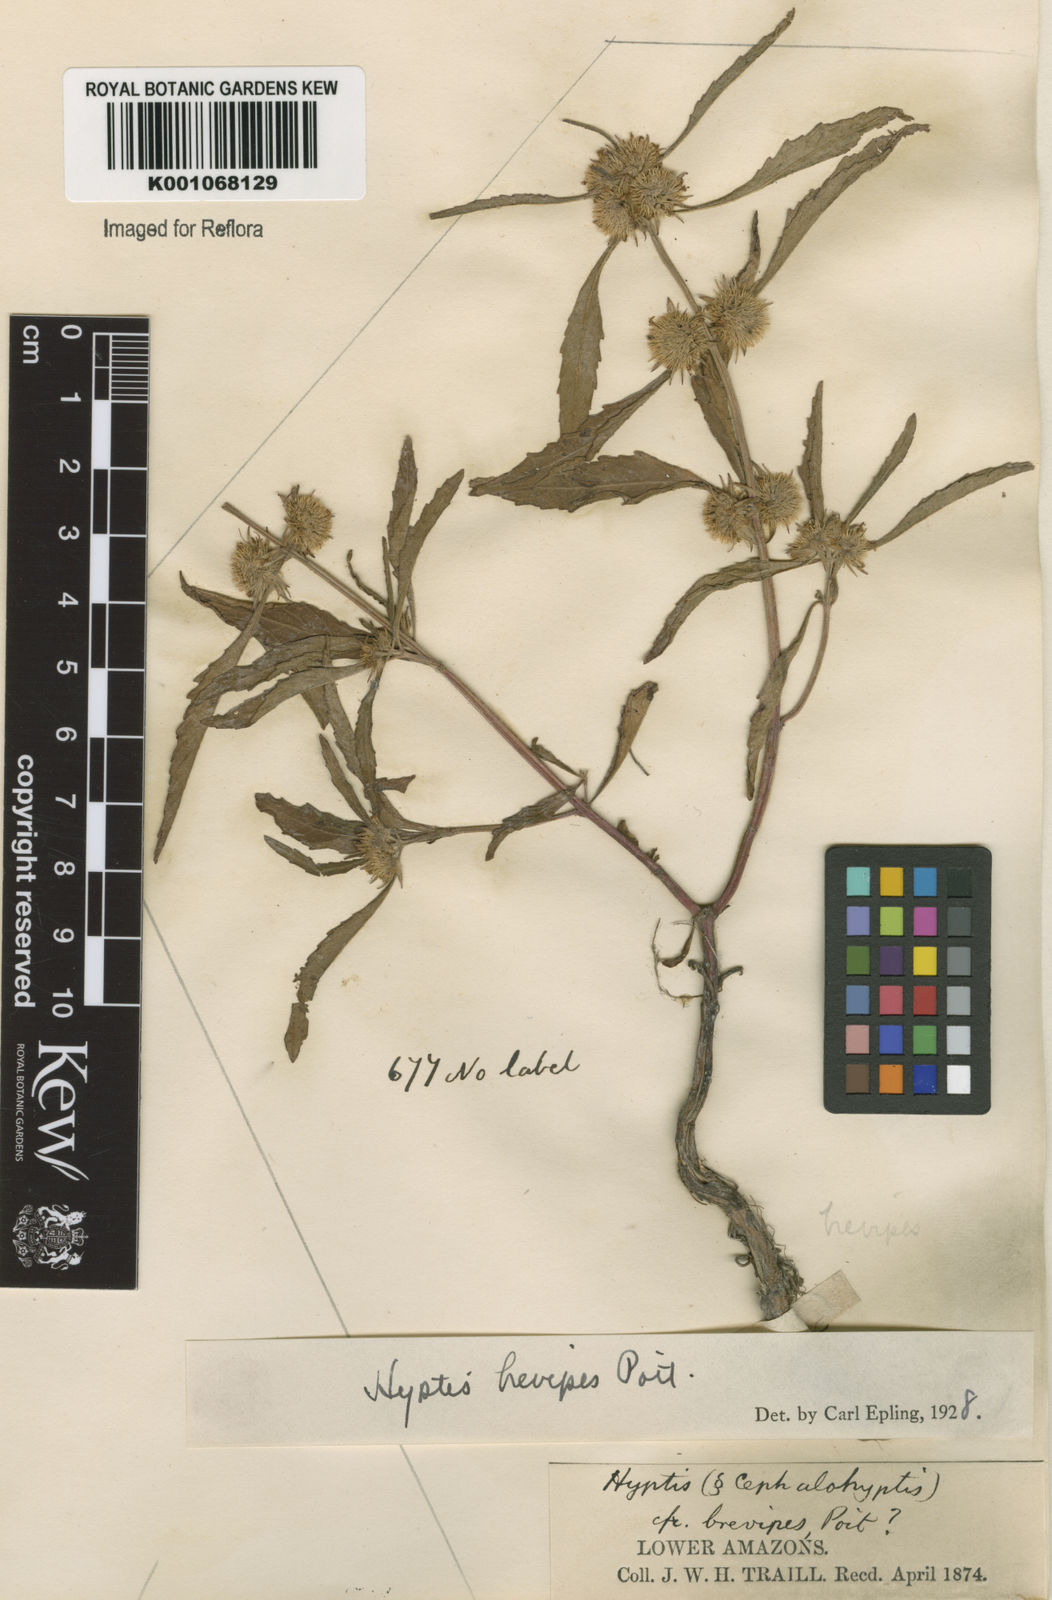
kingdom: Plantae
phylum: Tracheophyta
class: Magnoliopsida
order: Lamiales
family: Lamiaceae
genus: Hyptis
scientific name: Hyptis brevipes
